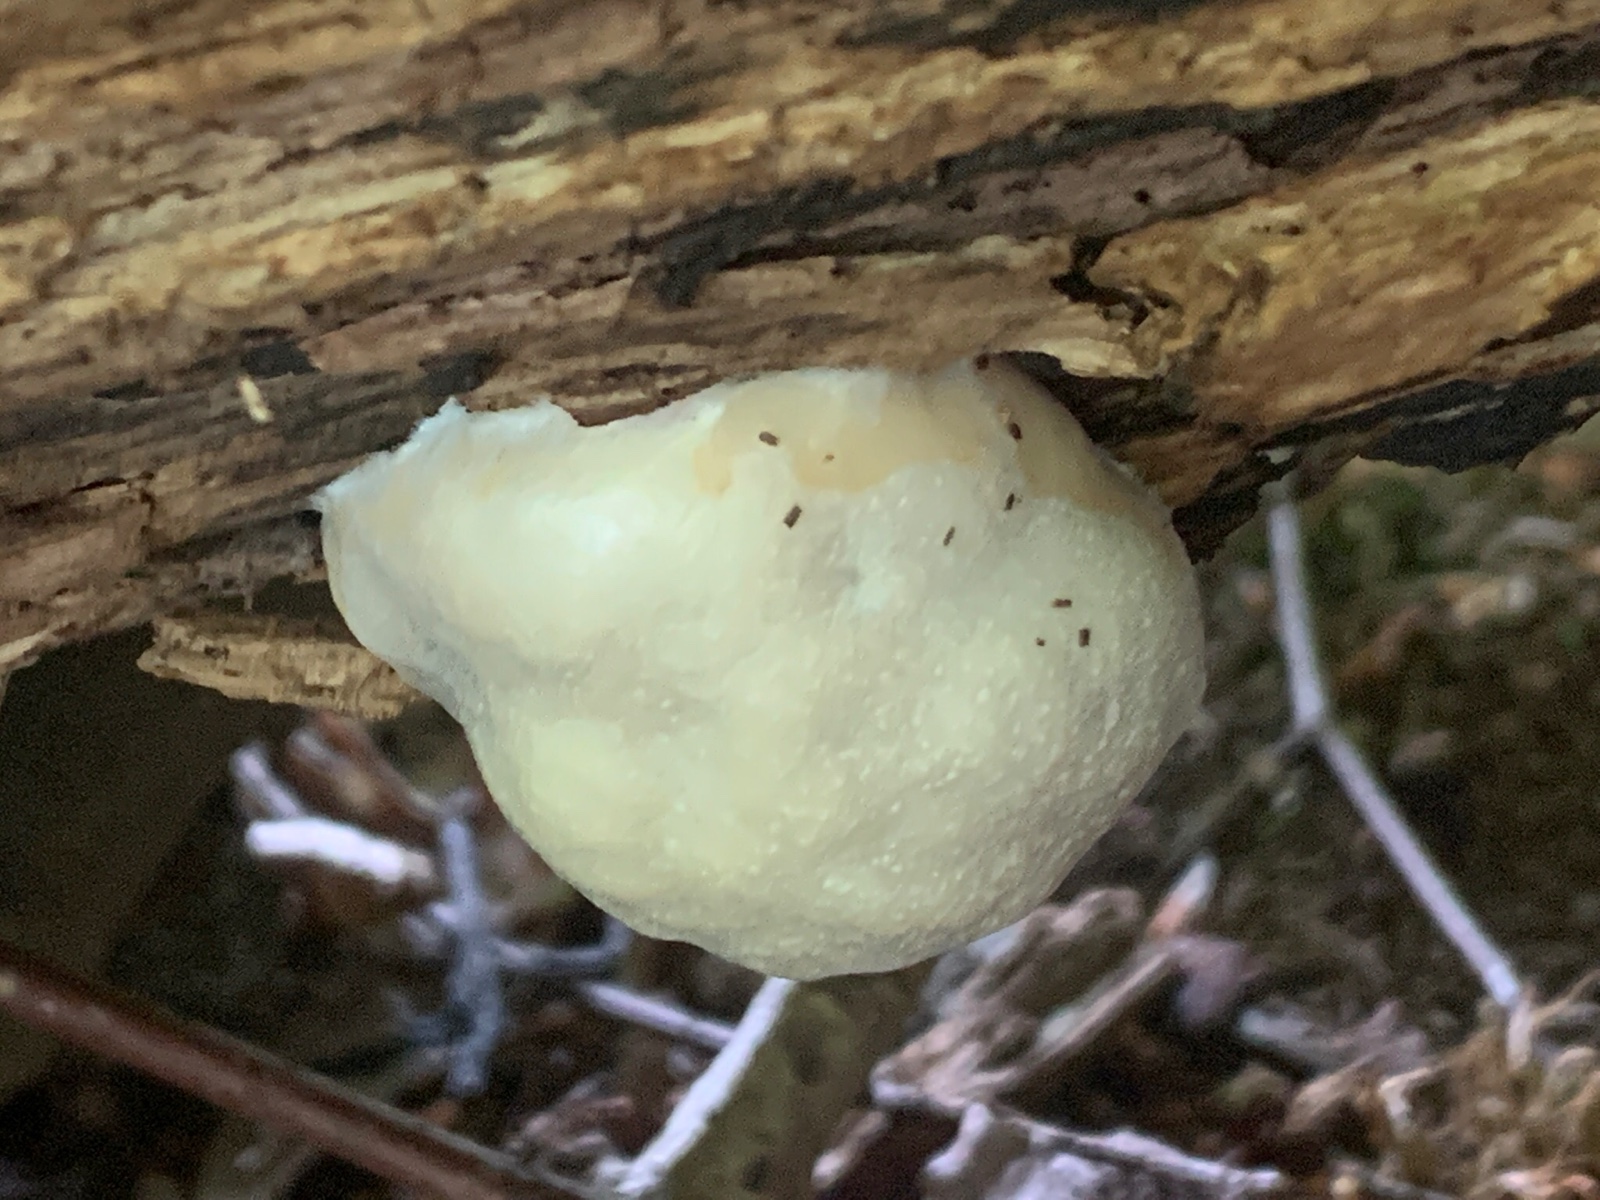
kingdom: Protozoa
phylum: Mycetozoa
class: Myxomycetes
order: Cribrariales
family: Tubiferaceae
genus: Reticularia
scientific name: Reticularia lycoperdon
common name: skinnende støvpude
